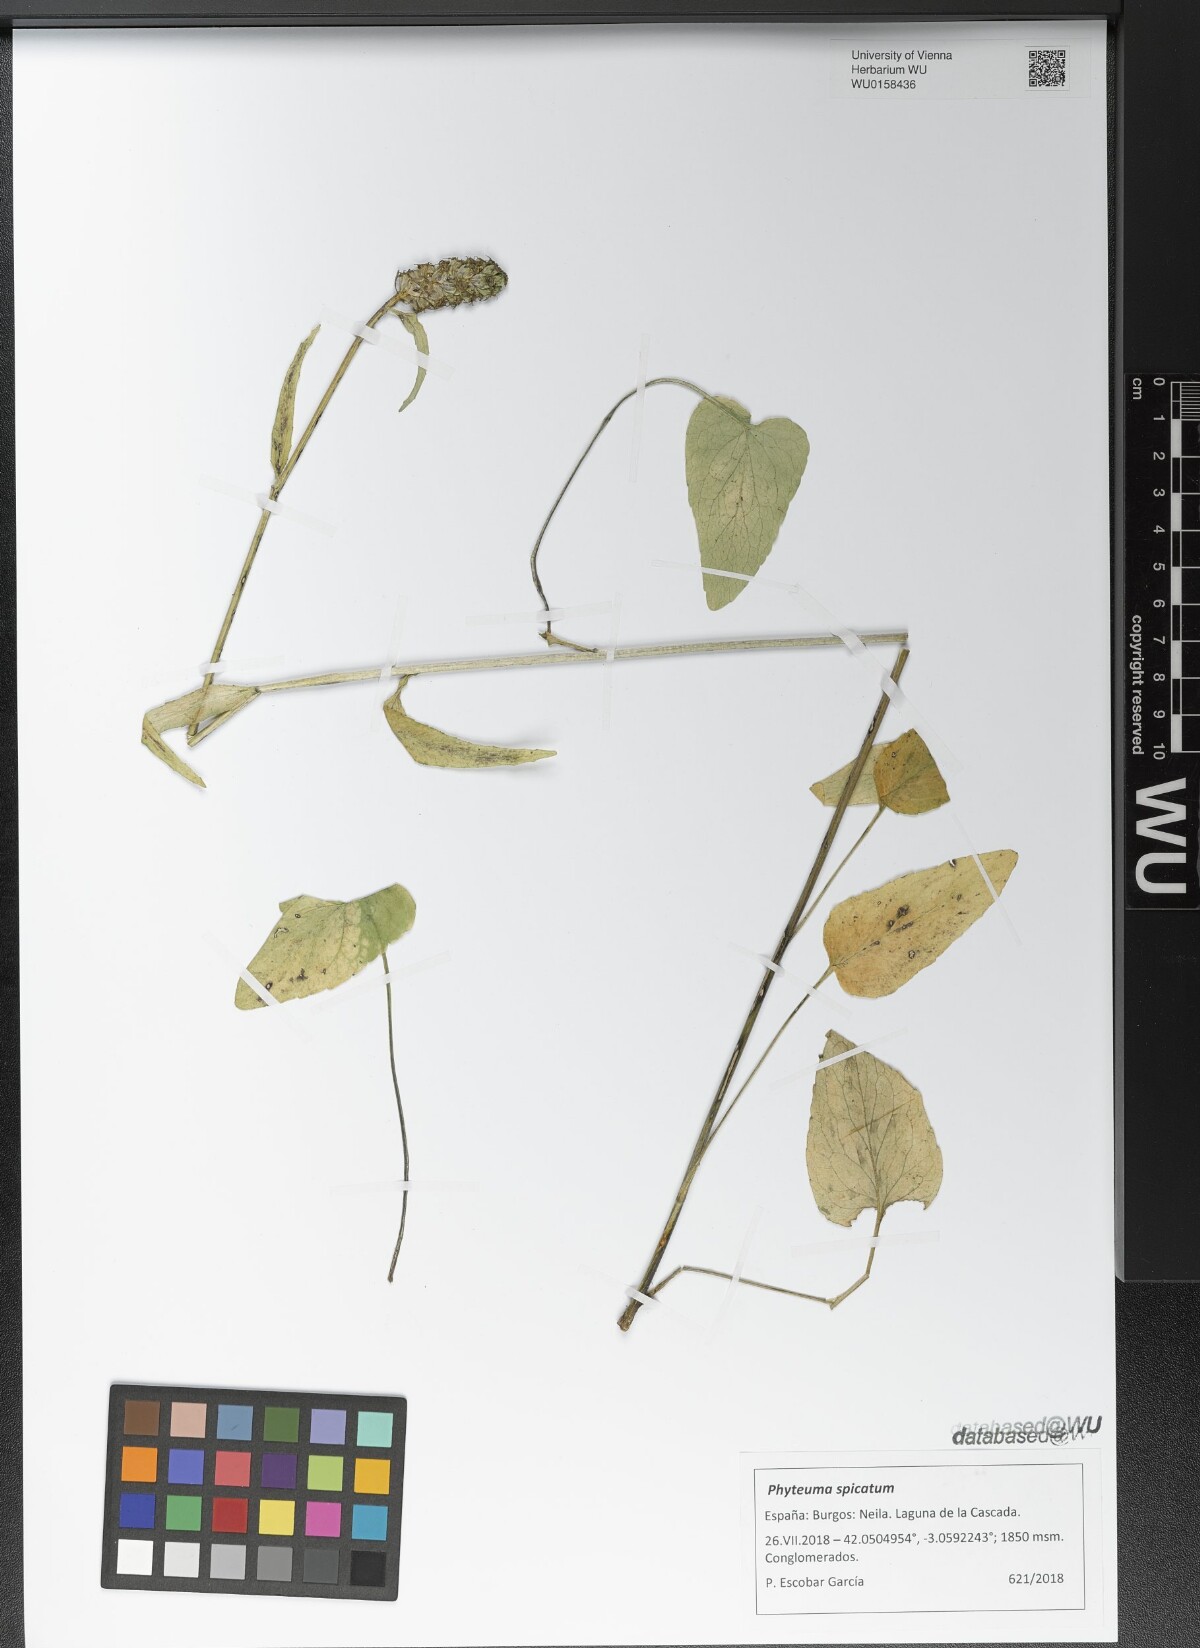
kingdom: Plantae
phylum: Tracheophyta
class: Magnoliopsida
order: Asterales
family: Campanulaceae
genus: Phyteuma
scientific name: Phyteuma spicatum
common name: Spiked rampion
